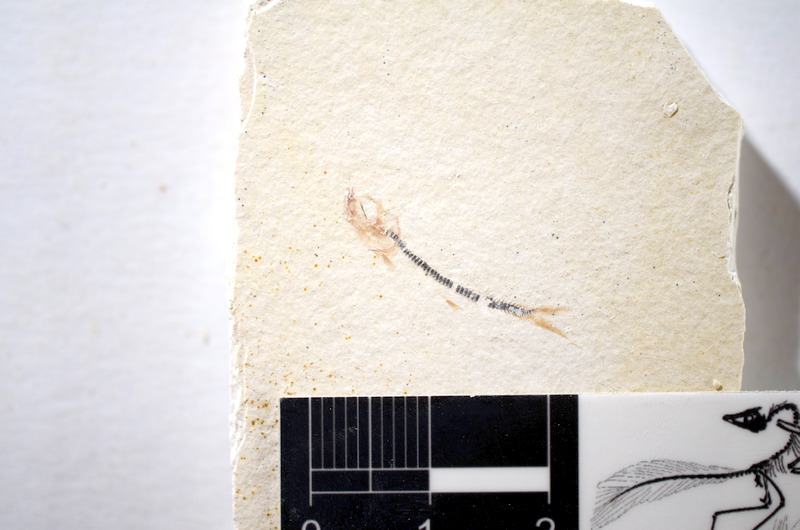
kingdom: Animalia
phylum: Chordata
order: Salmoniformes
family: Orthogonikleithridae
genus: Orthogonikleithrus
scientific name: Orthogonikleithrus hoelli
